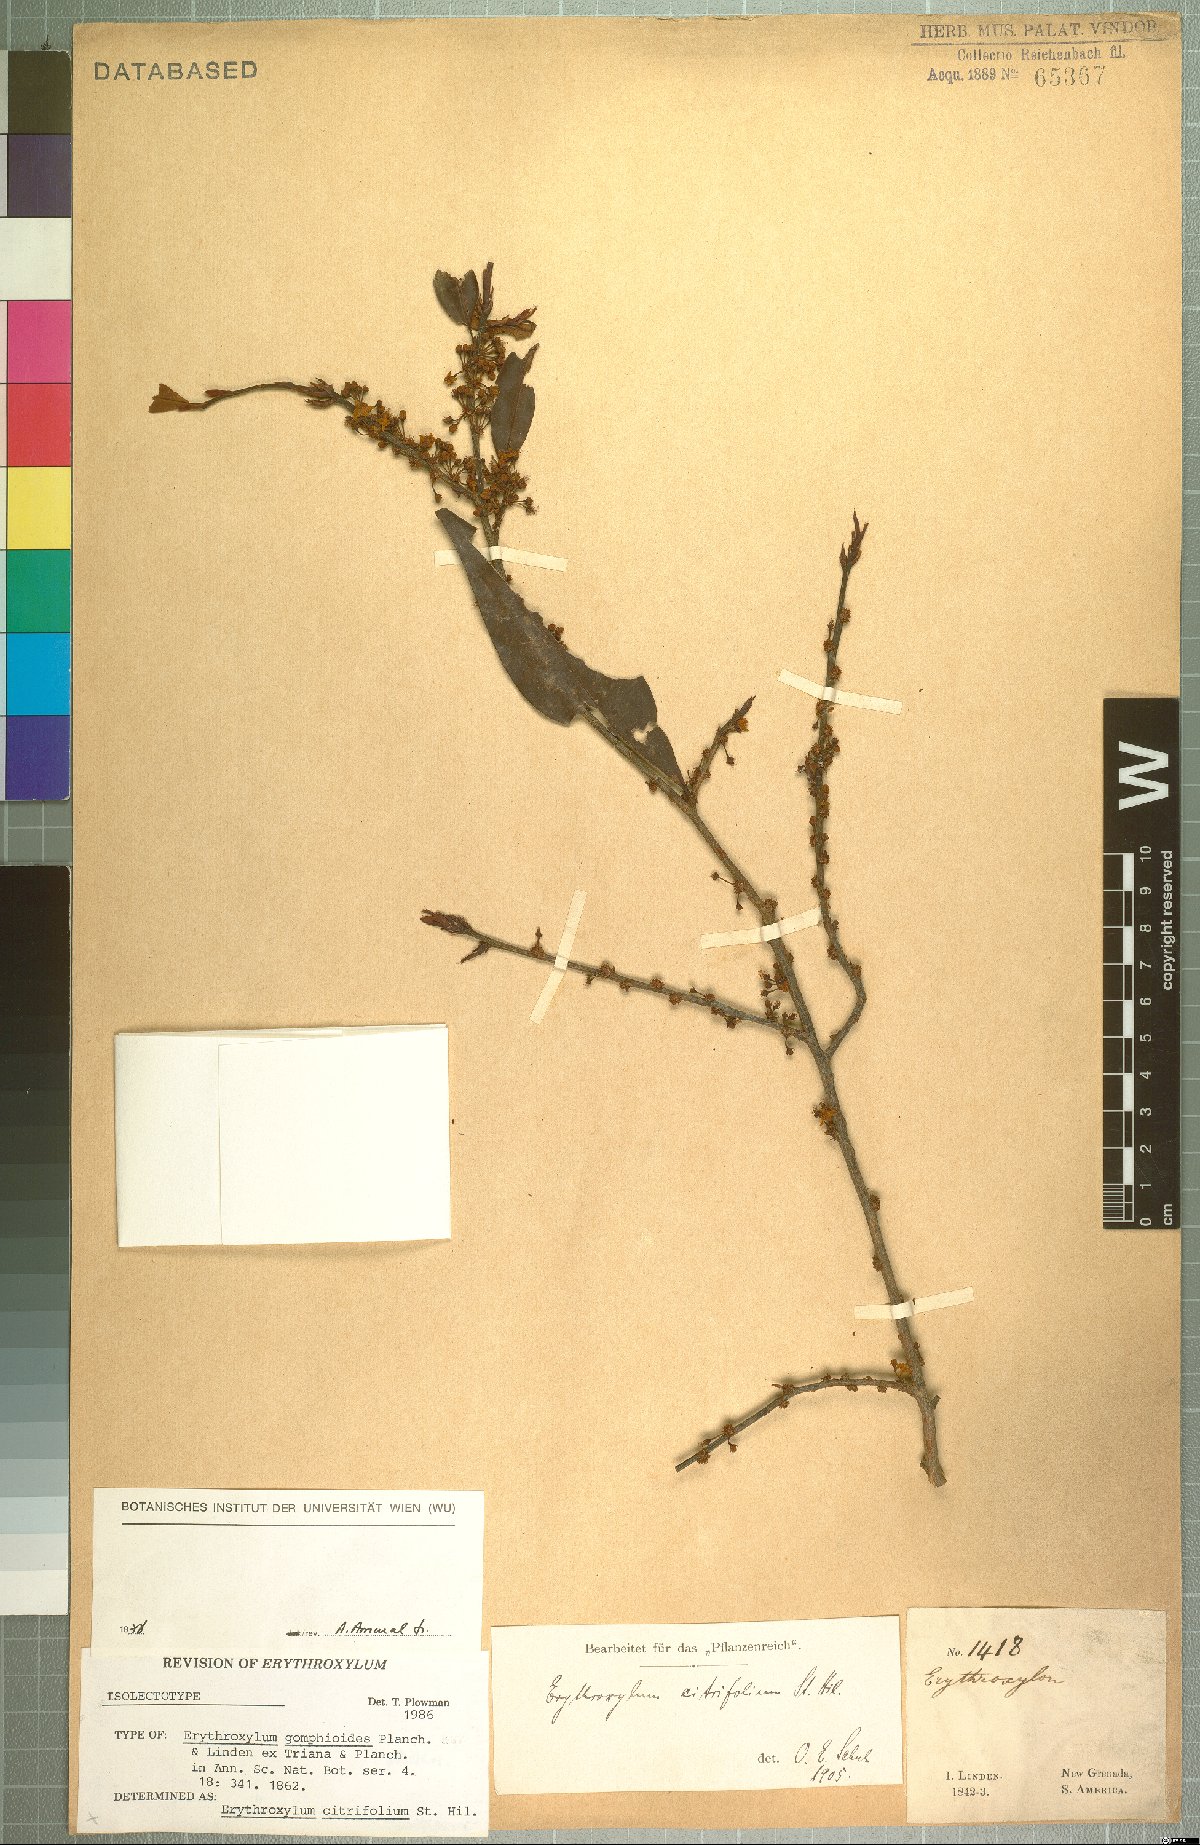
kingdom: Plantae
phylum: Tracheophyta
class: Magnoliopsida
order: Malpighiales
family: Erythroxylaceae
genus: Erythroxylum
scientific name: Erythroxylum citrifolium
